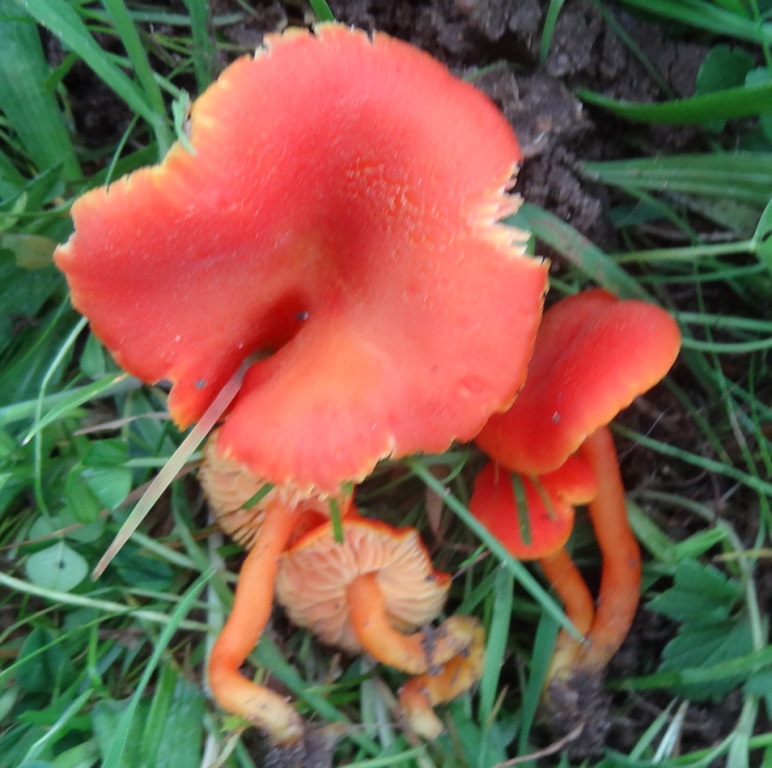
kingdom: Fungi
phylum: Basidiomycota
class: Agaricomycetes
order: Agaricales
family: Hygrophoraceae
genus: Hygrocybe
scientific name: Hygrocybe miniata
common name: mønje-vokshat
